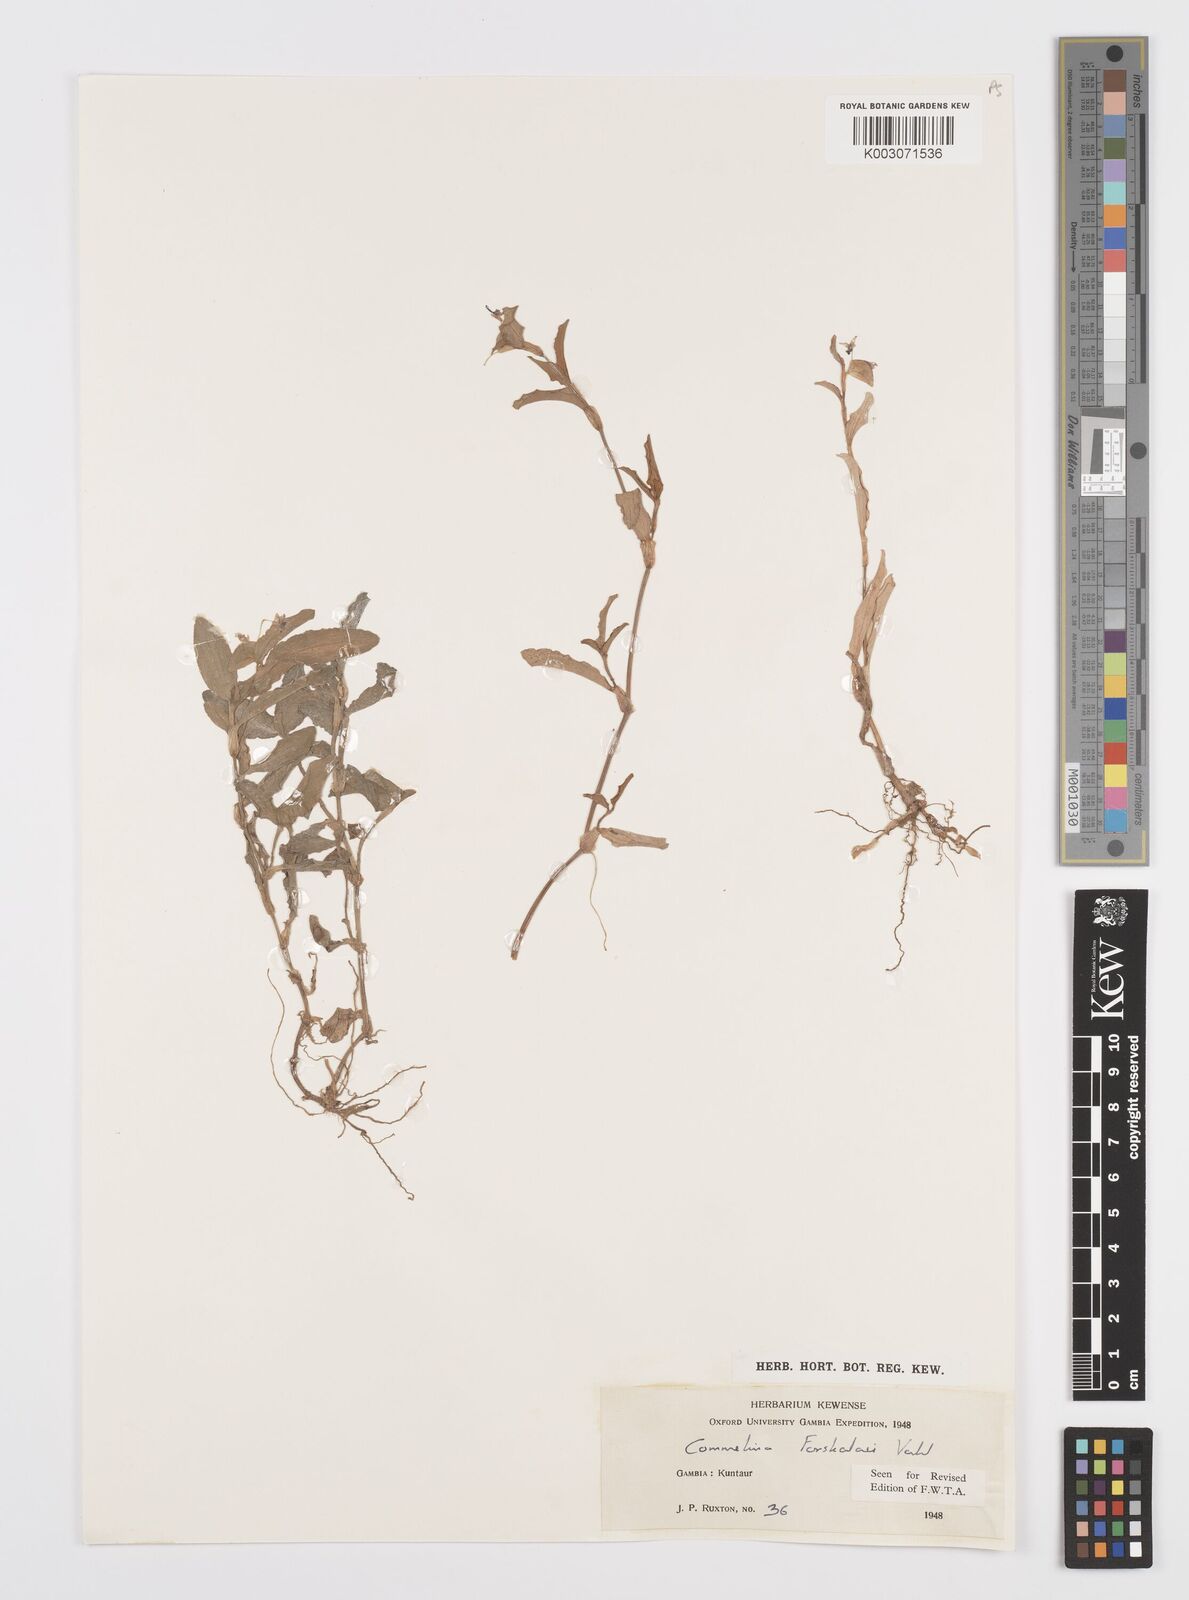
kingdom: Plantae
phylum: Tracheophyta
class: Liliopsida
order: Commelinales
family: Commelinaceae
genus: Commelina
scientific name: Commelina forskaolii
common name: Rat's ear
